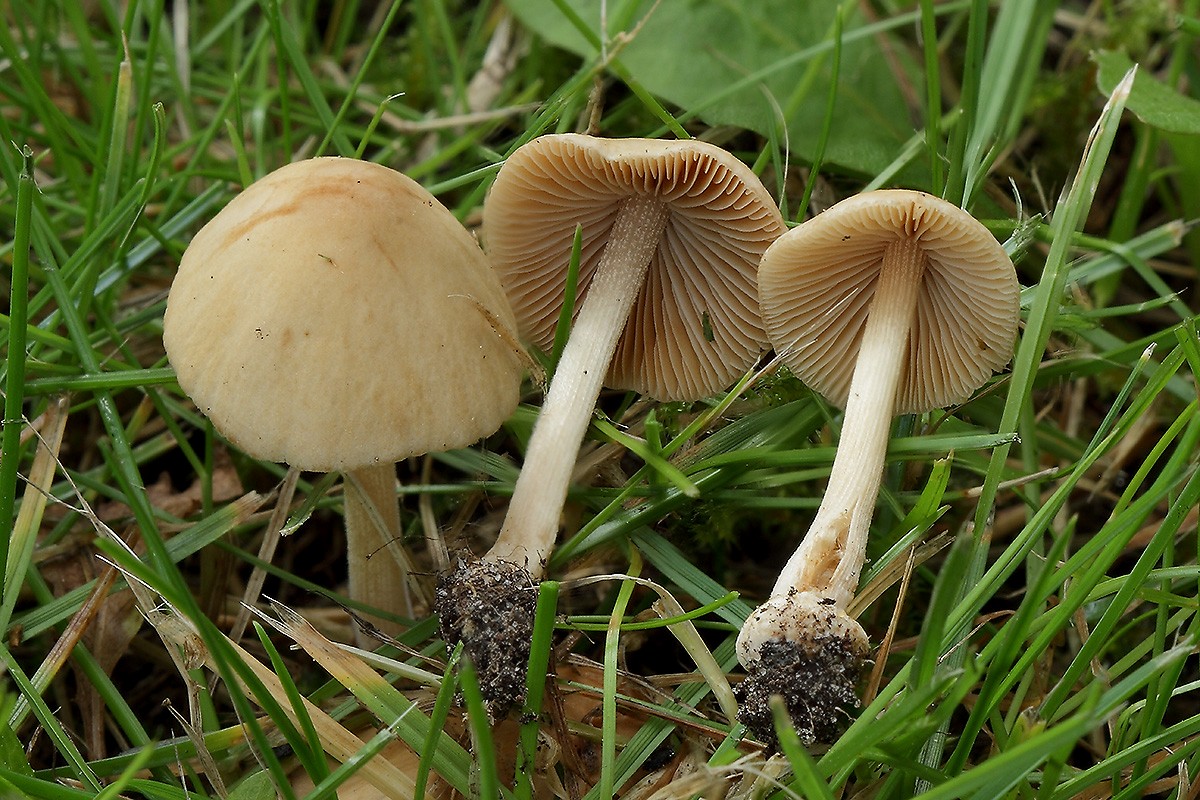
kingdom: Fungi
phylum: Basidiomycota
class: Agaricomycetes
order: Agaricales
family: Bolbitiaceae
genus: Conocybe
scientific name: Conocybe inocybeoides
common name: knold-keglehat
